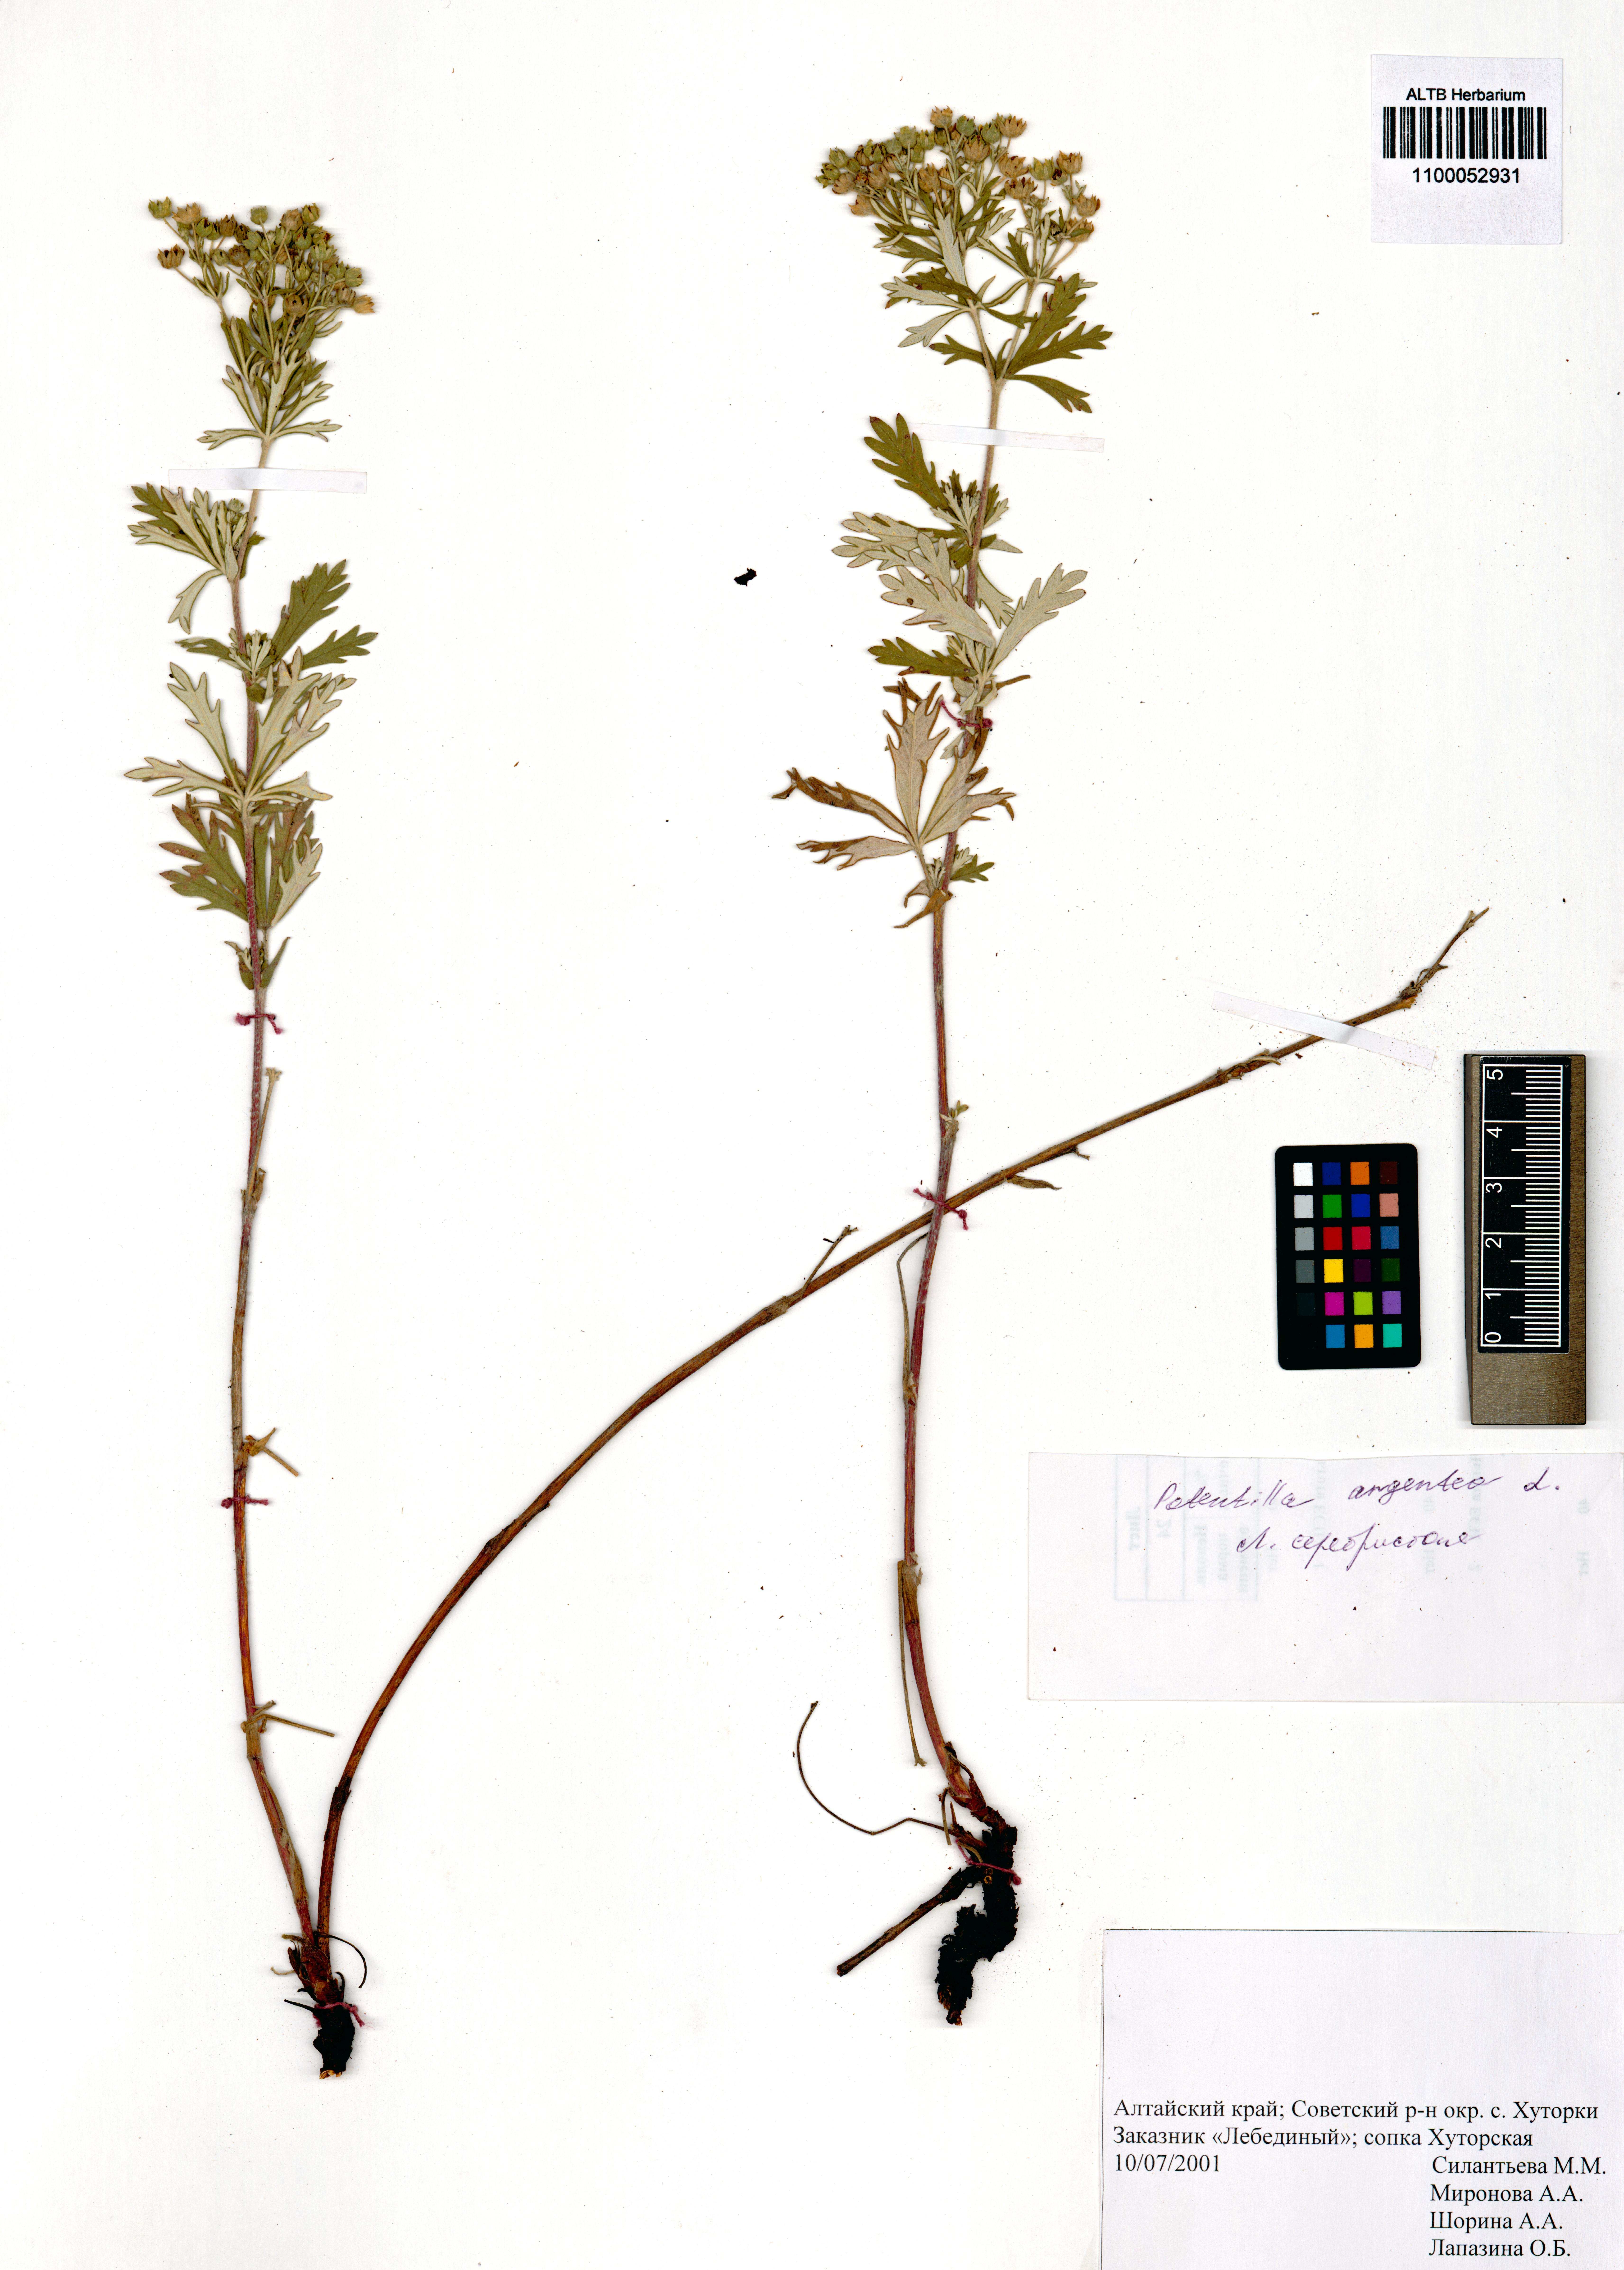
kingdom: Plantae
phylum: Tracheophyta
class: Magnoliopsida
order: Rosales
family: Rosaceae
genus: Potentilla
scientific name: Potentilla argentea
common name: Hoary cinquefoil
